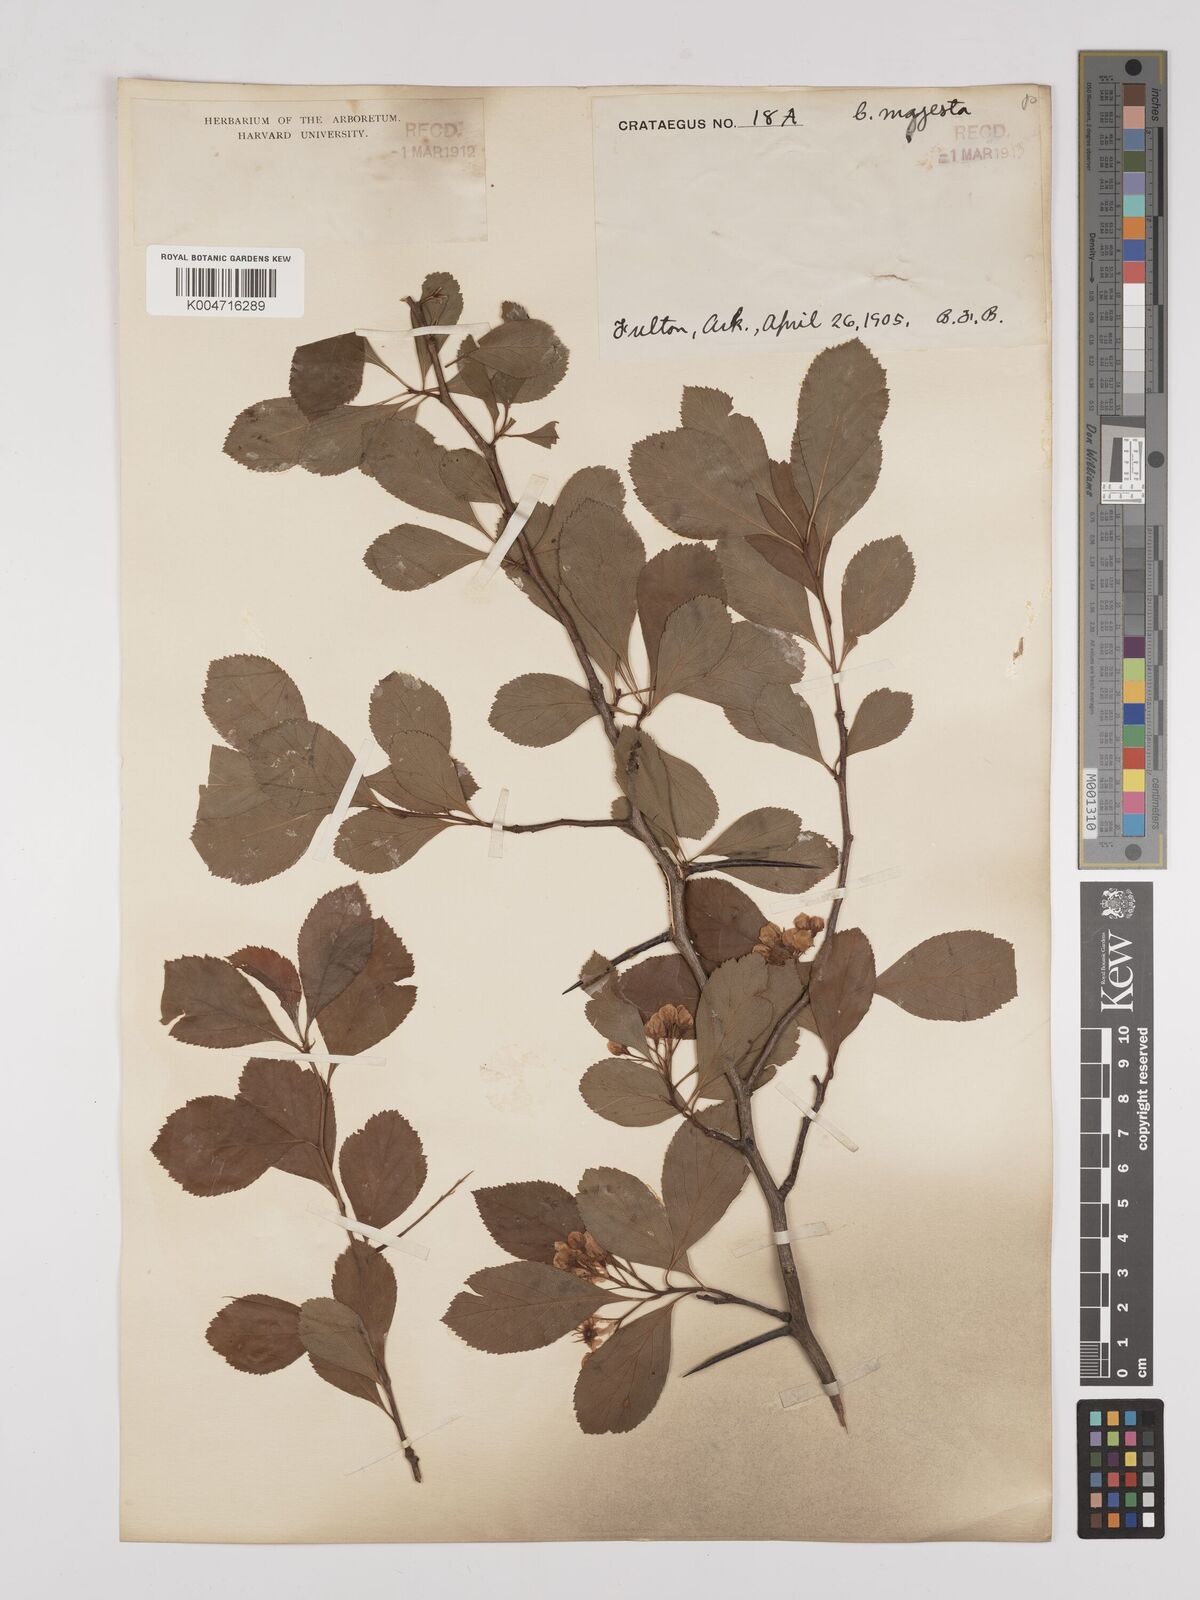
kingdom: Plantae
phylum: Tracheophyta
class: Magnoliopsida
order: Rosales
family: Rosaceae
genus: Crataegus
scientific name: Crataegus
